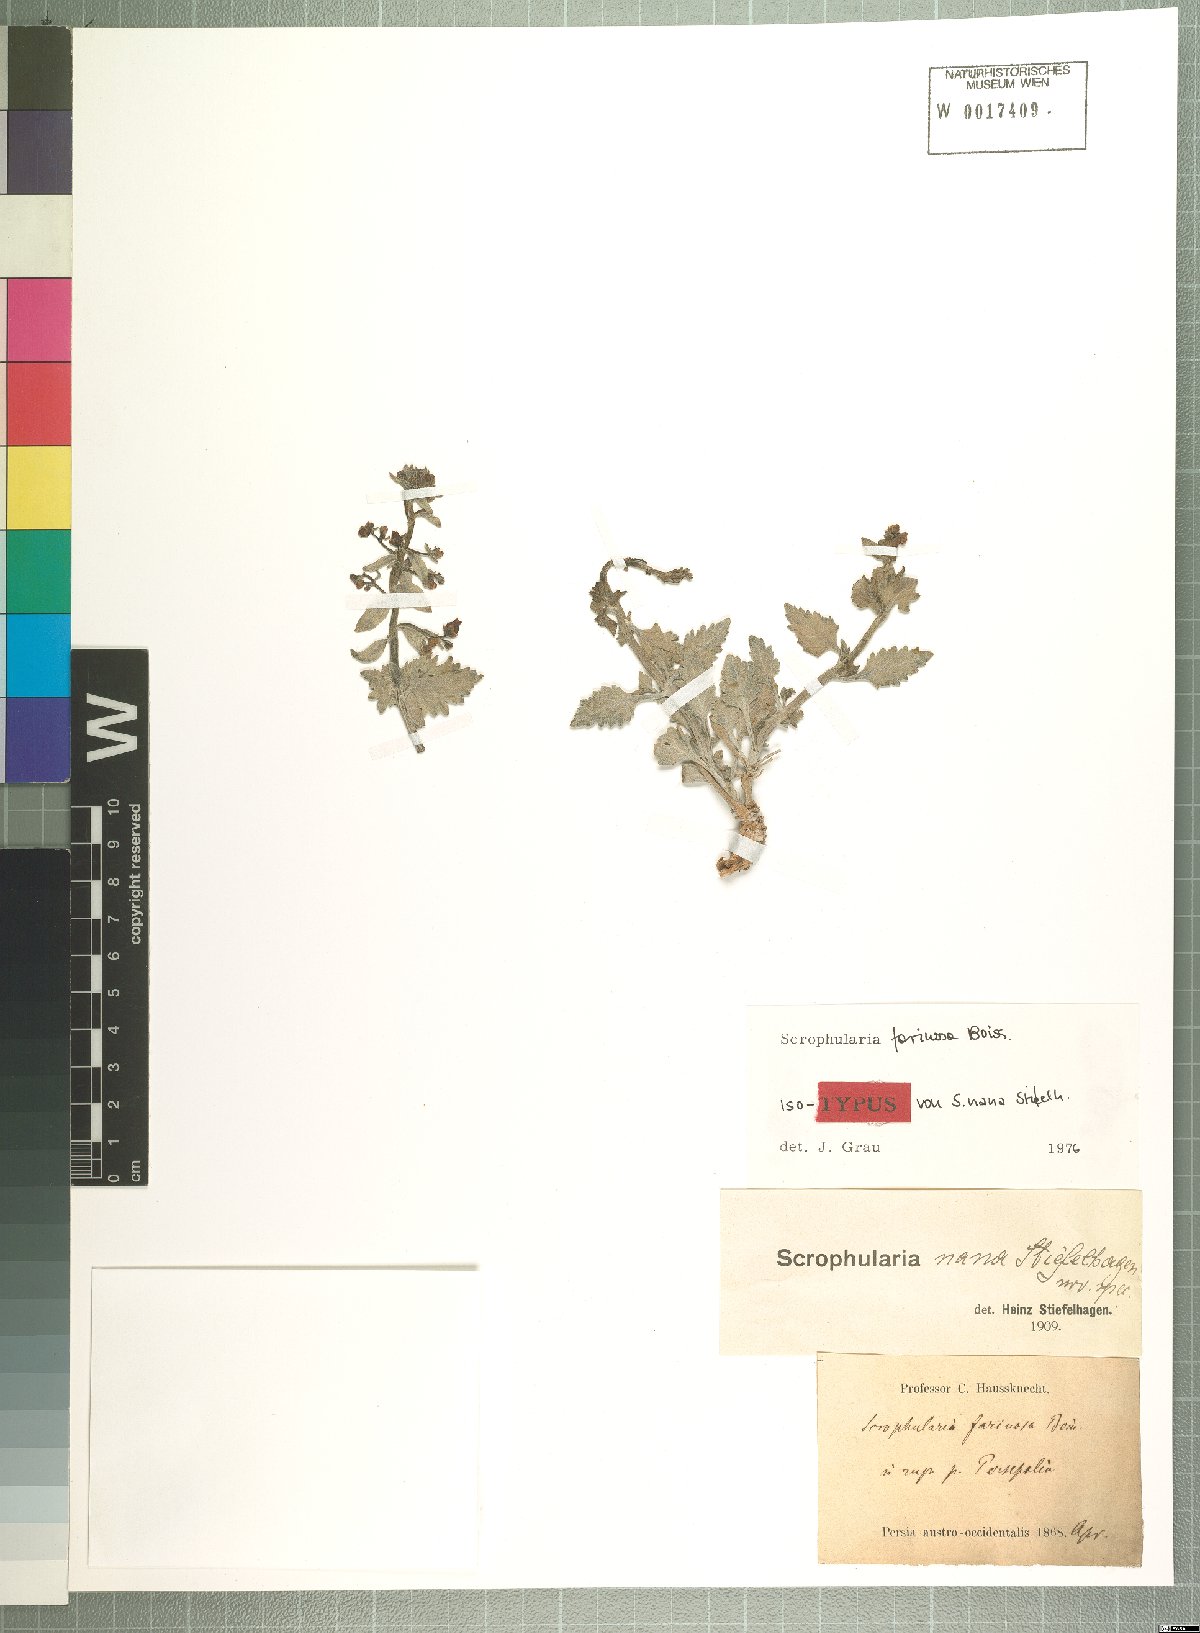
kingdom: Plantae
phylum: Tracheophyta
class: Magnoliopsida
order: Lamiales
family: Scrophulariaceae
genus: Scrophularia
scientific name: Scrophularia longiflora
